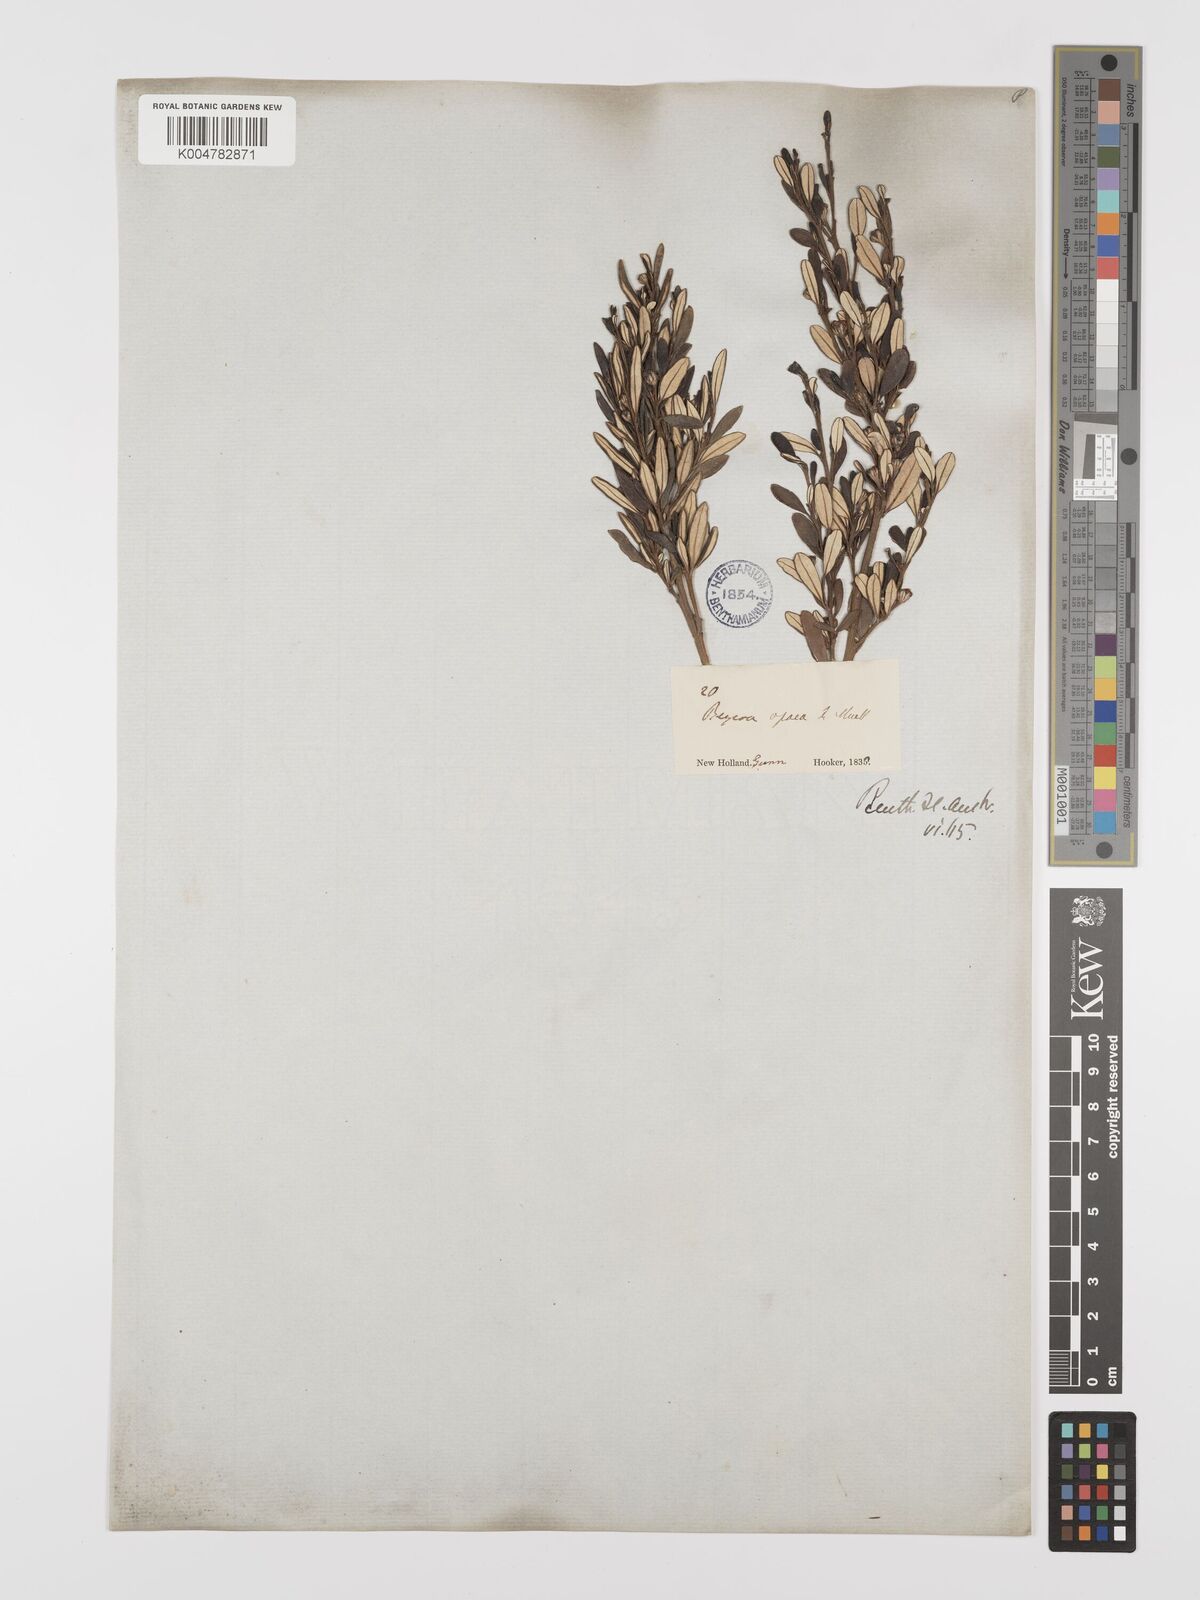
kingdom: Plantae
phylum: Tracheophyta
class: Magnoliopsida
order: Malpighiales
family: Euphorbiaceae
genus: Beyeria
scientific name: Beyeria lechenaultii
